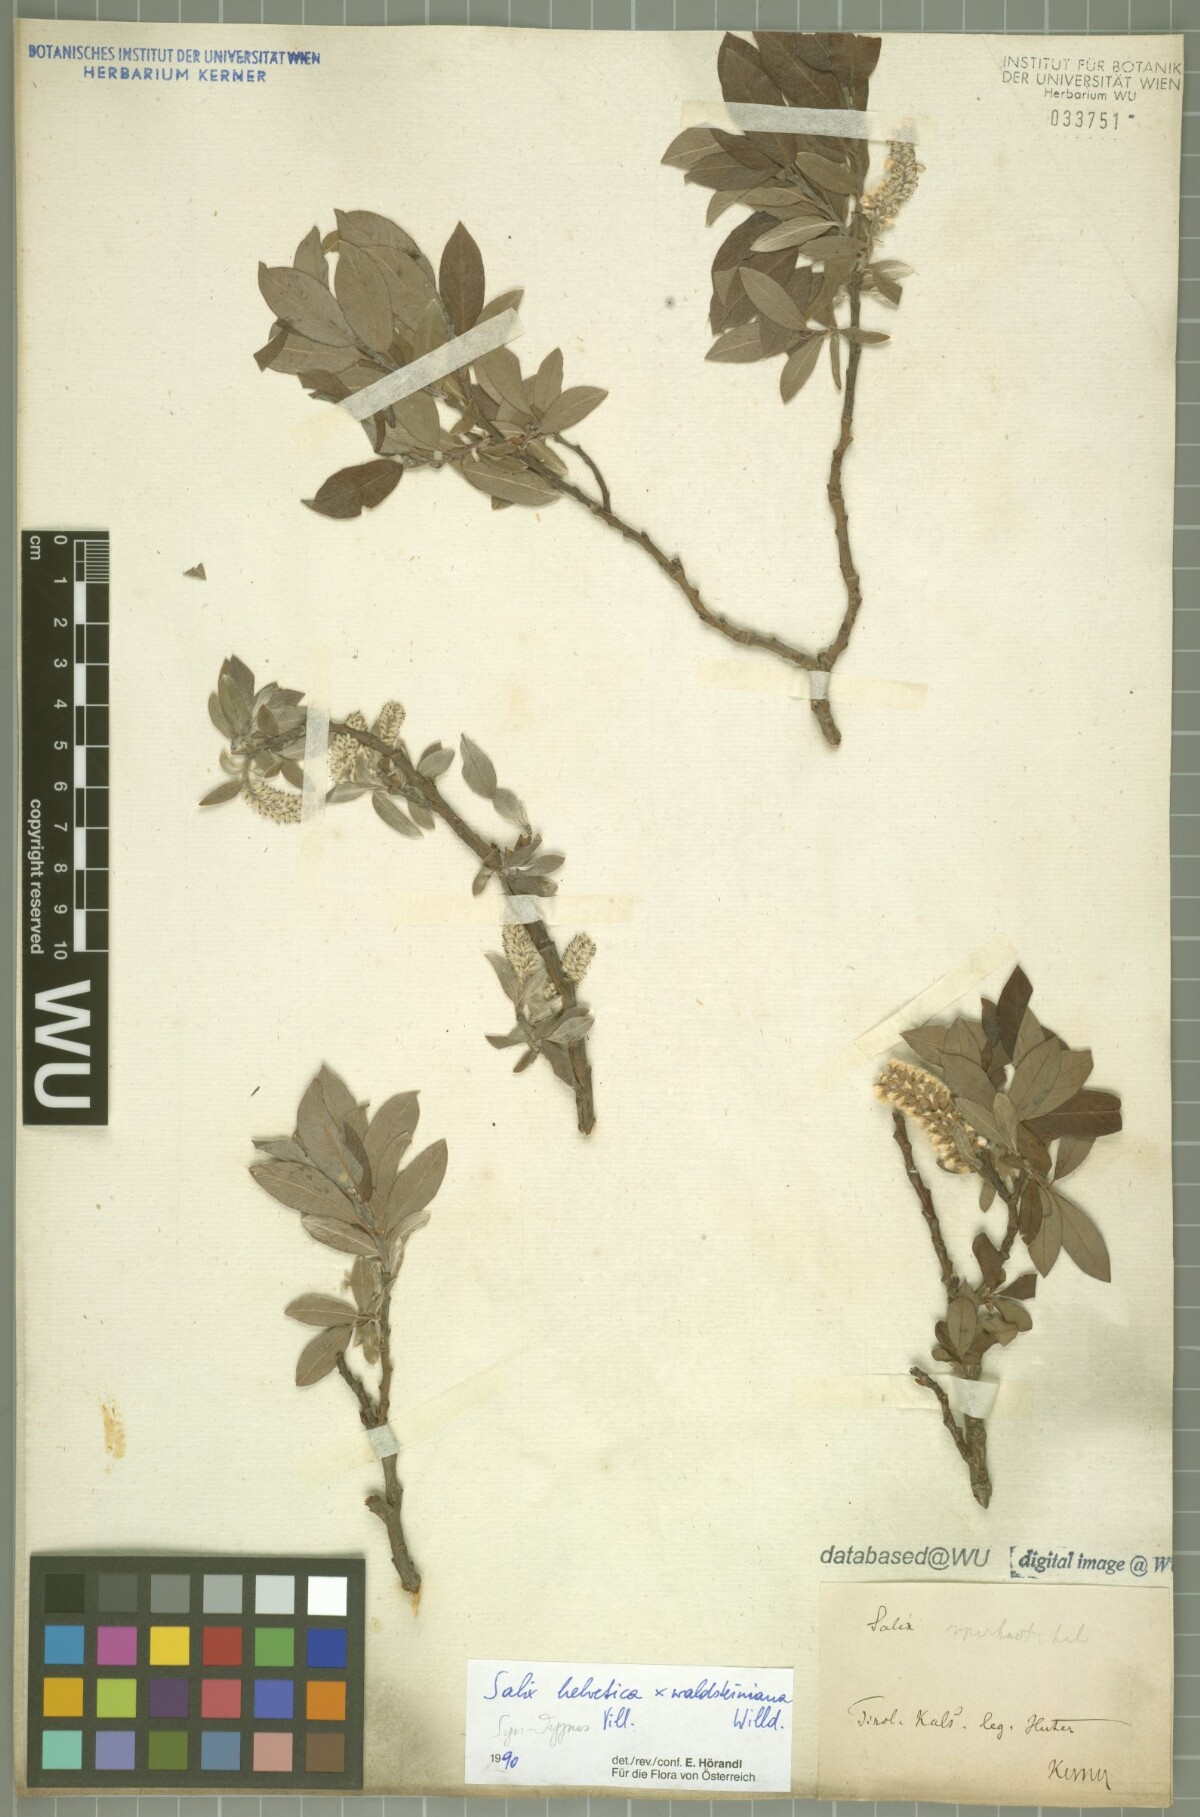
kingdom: Plantae
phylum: Tracheophyta
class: Magnoliopsida
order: Malpighiales
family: Salicaceae
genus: Salix
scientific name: Salix lapponum
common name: Downy willow
